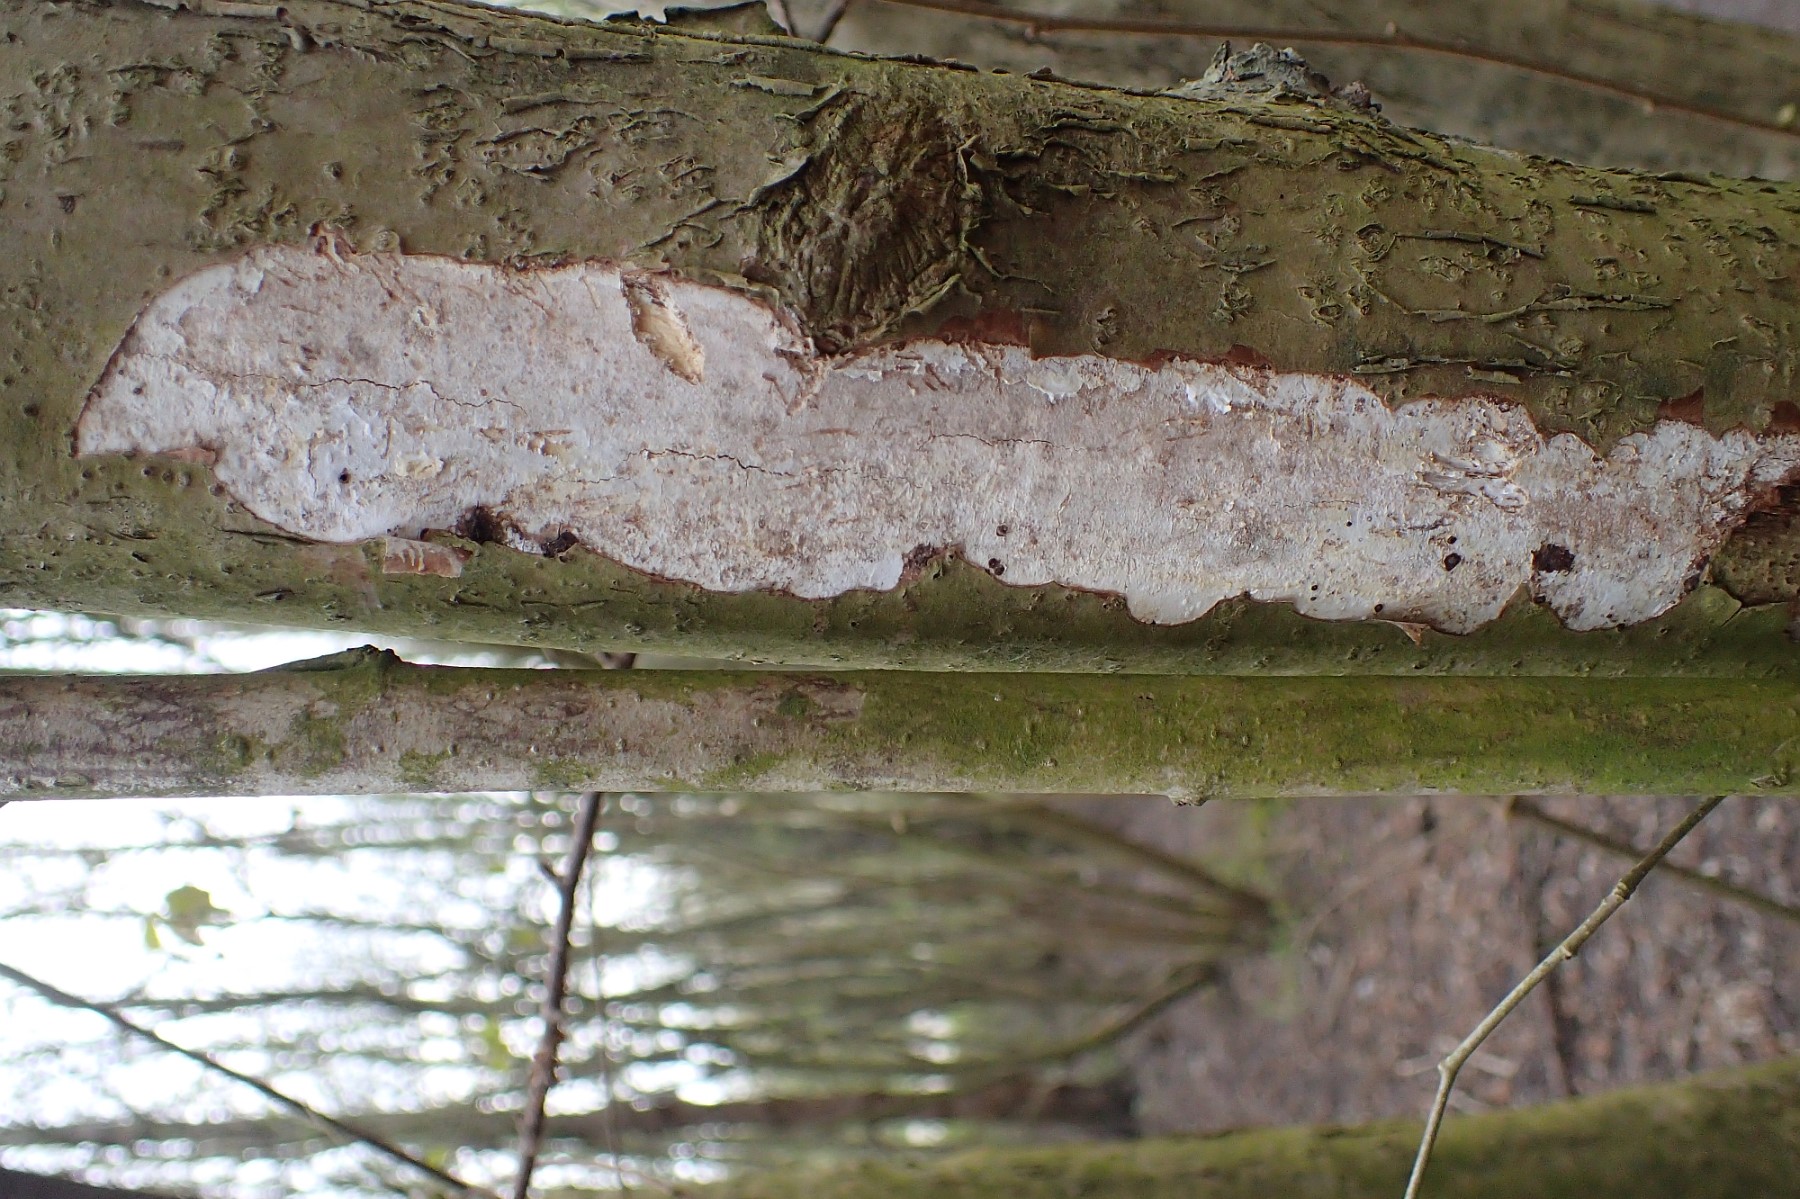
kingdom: Fungi
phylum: Basidiomycota
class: Agaricomycetes
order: Corticiales
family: Vuilleminiaceae
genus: Vuilleminia
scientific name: Vuilleminia coryli
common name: hassel-barksprænger
